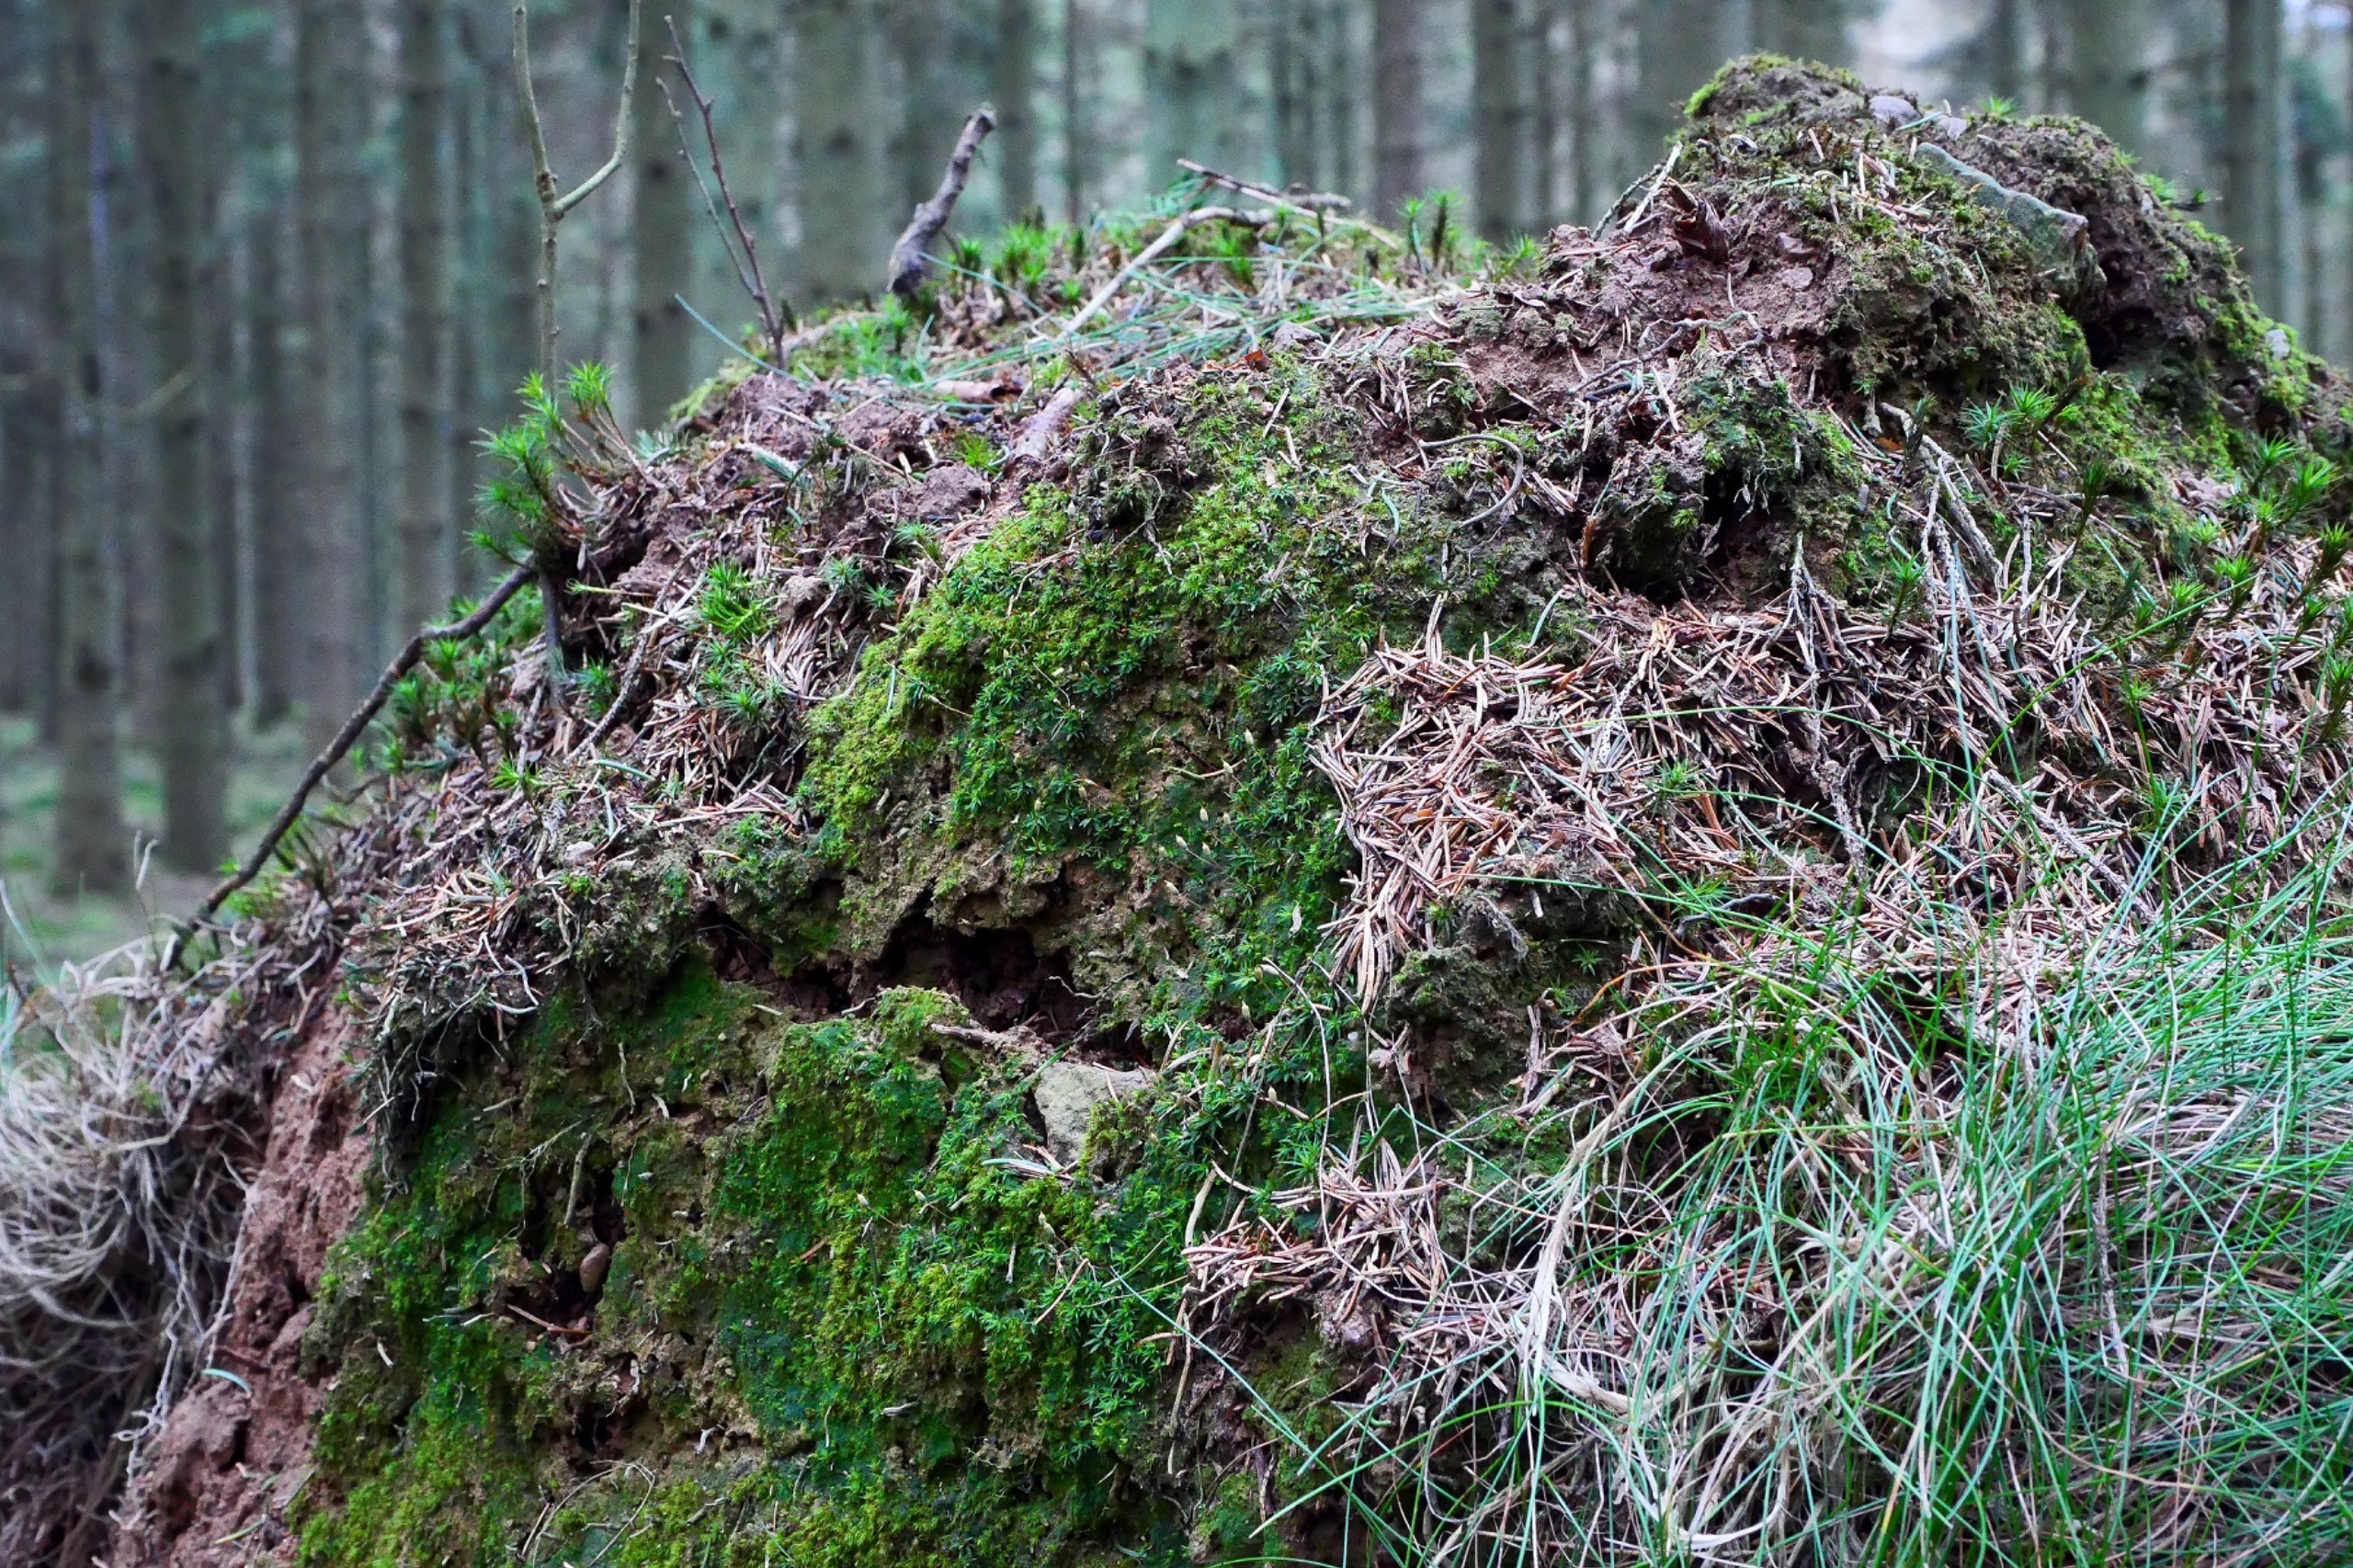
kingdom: Plantae
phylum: Bryophyta
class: Polytrichopsida
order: Polytrichales
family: Polytrichaceae
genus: Pogonatum
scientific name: Pogonatum aloides
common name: Smal urnekapsel
